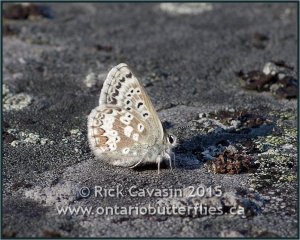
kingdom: Animalia
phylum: Arthropoda
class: Insecta
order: Lepidoptera
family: Lycaenidae
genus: Agriades
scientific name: Agriades glandon
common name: Arctic Blue
